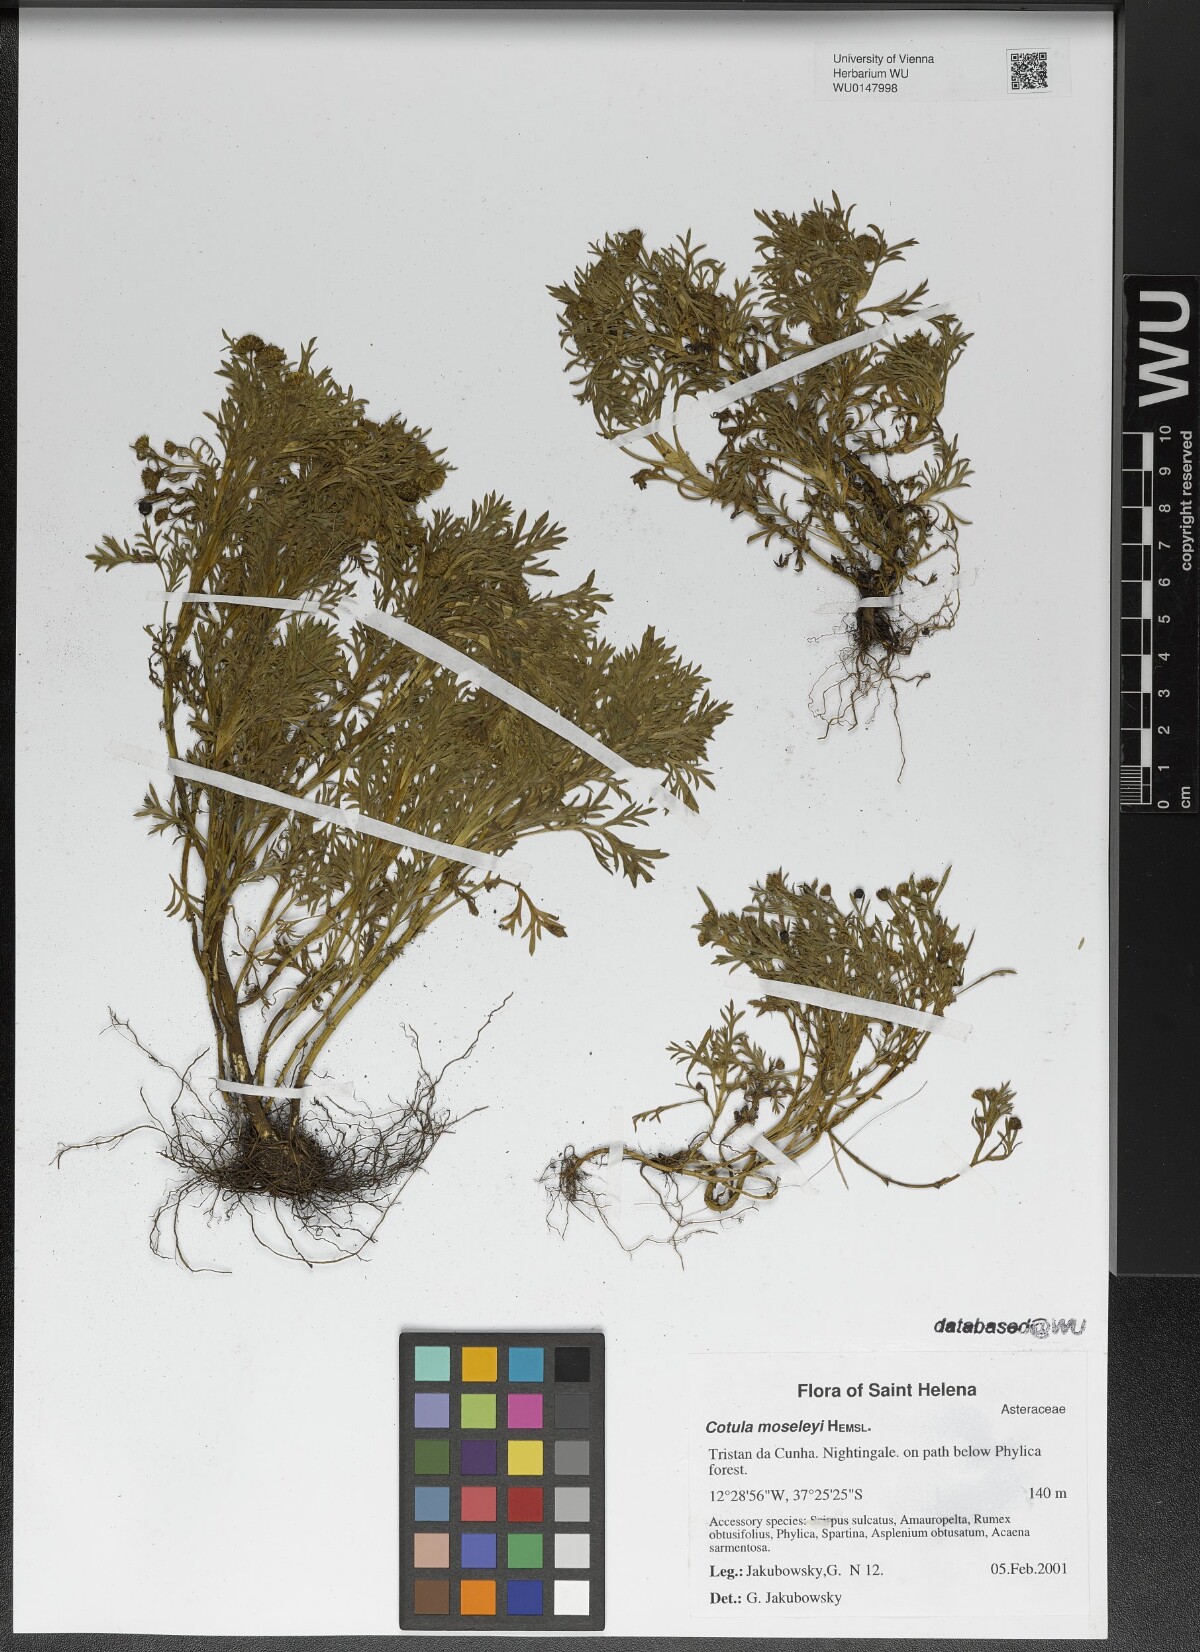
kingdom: Plantae
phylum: Tracheophyta
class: Magnoliopsida
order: Asterales
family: Asteraceae
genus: Cotula
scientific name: Cotula moseleyi
